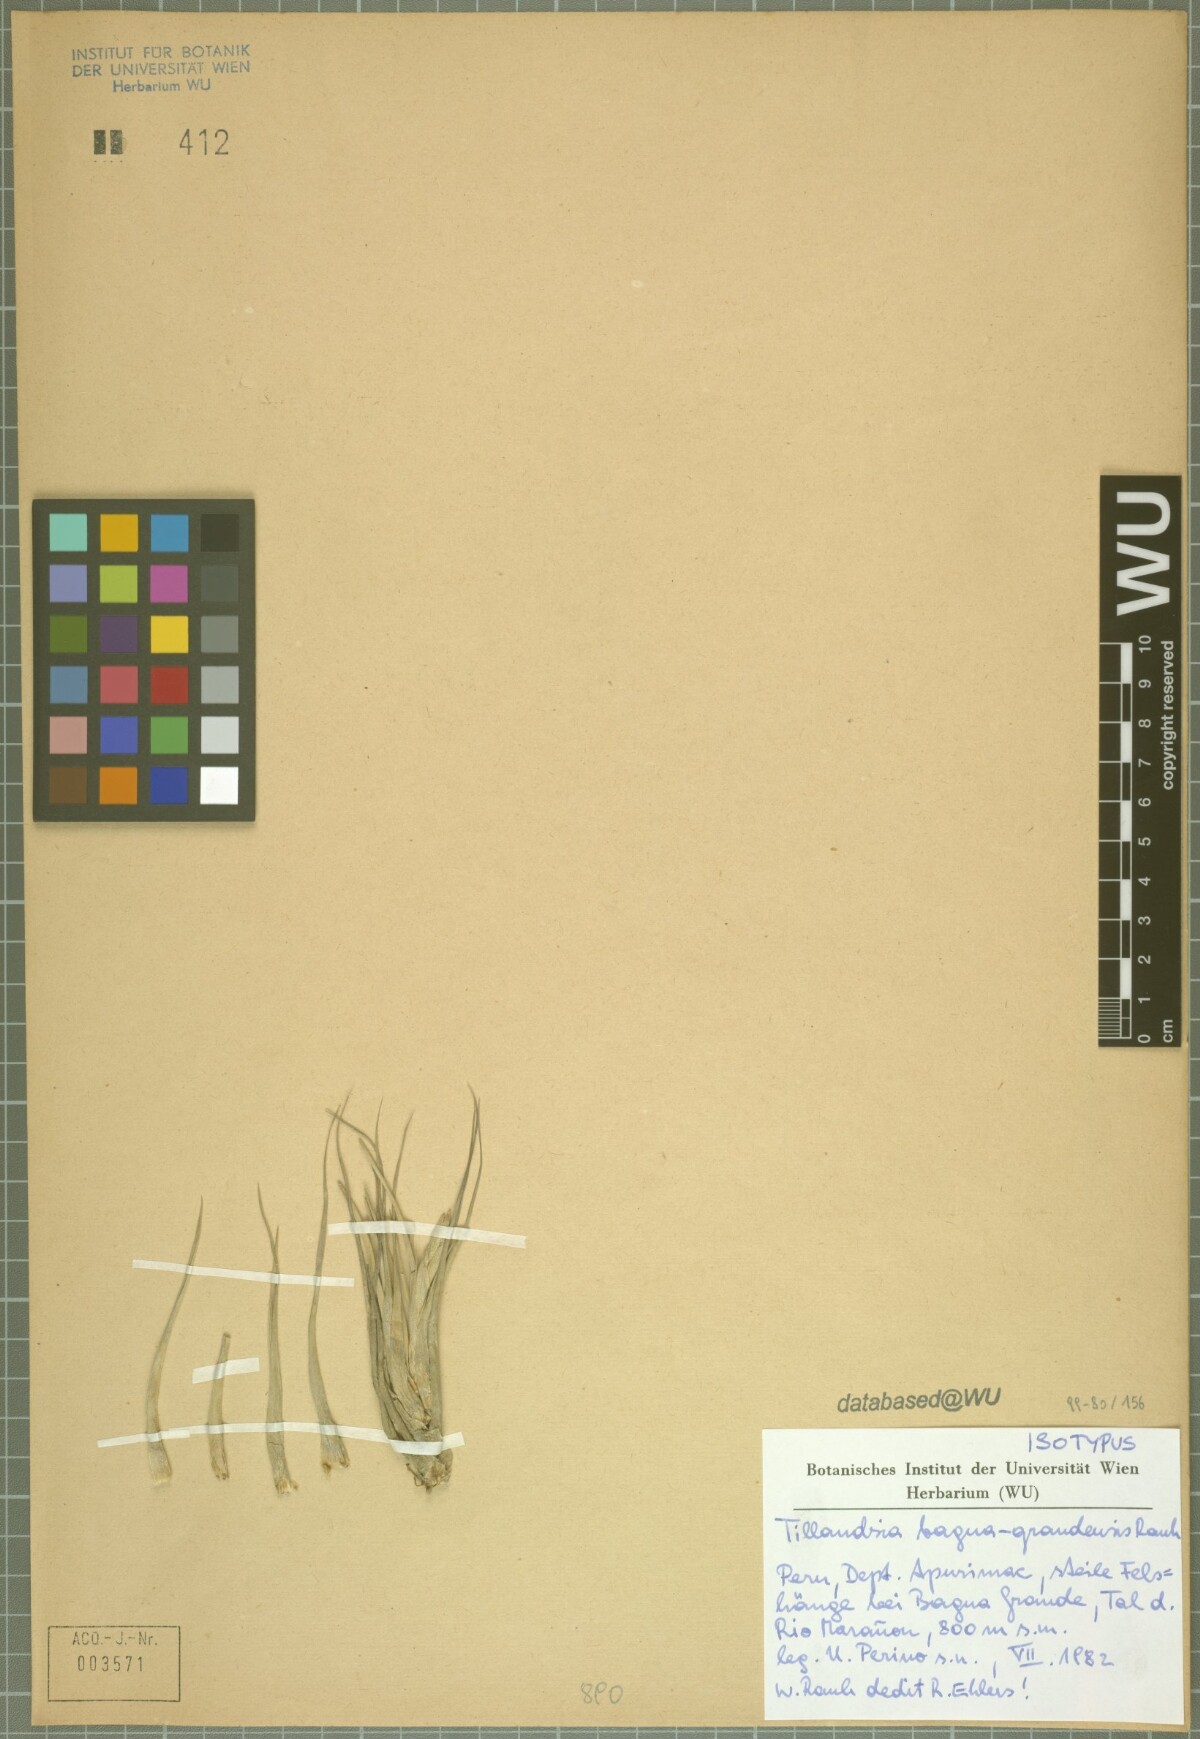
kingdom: Plantae
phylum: Tracheophyta
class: Liliopsida
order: Poales
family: Bromeliaceae
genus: Tillandsia
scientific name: Tillandsia bagua-grandensis
